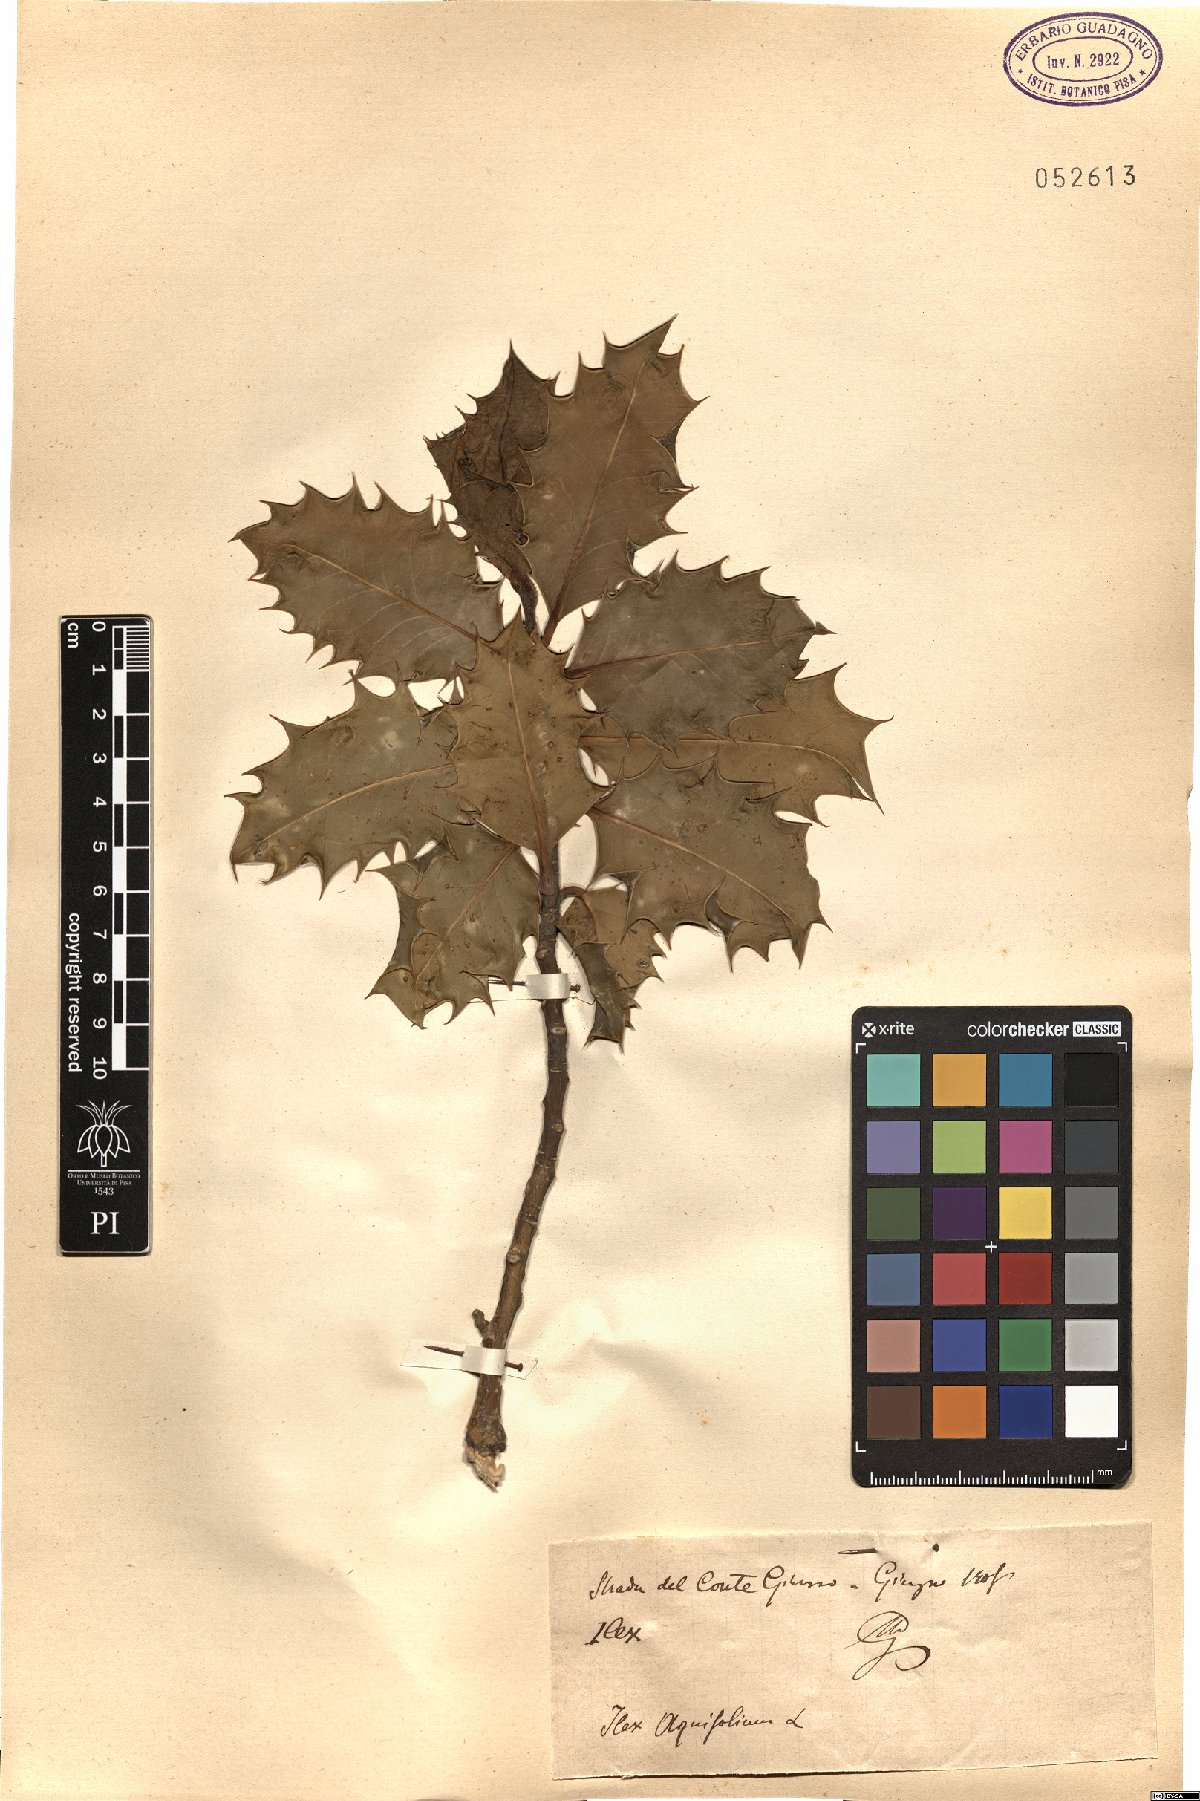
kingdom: Plantae
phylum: Tracheophyta
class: Magnoliopsida
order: Aquifoliales
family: Aquifoliaceae
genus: Ilex
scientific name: Ilex aquifolium
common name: English holly
